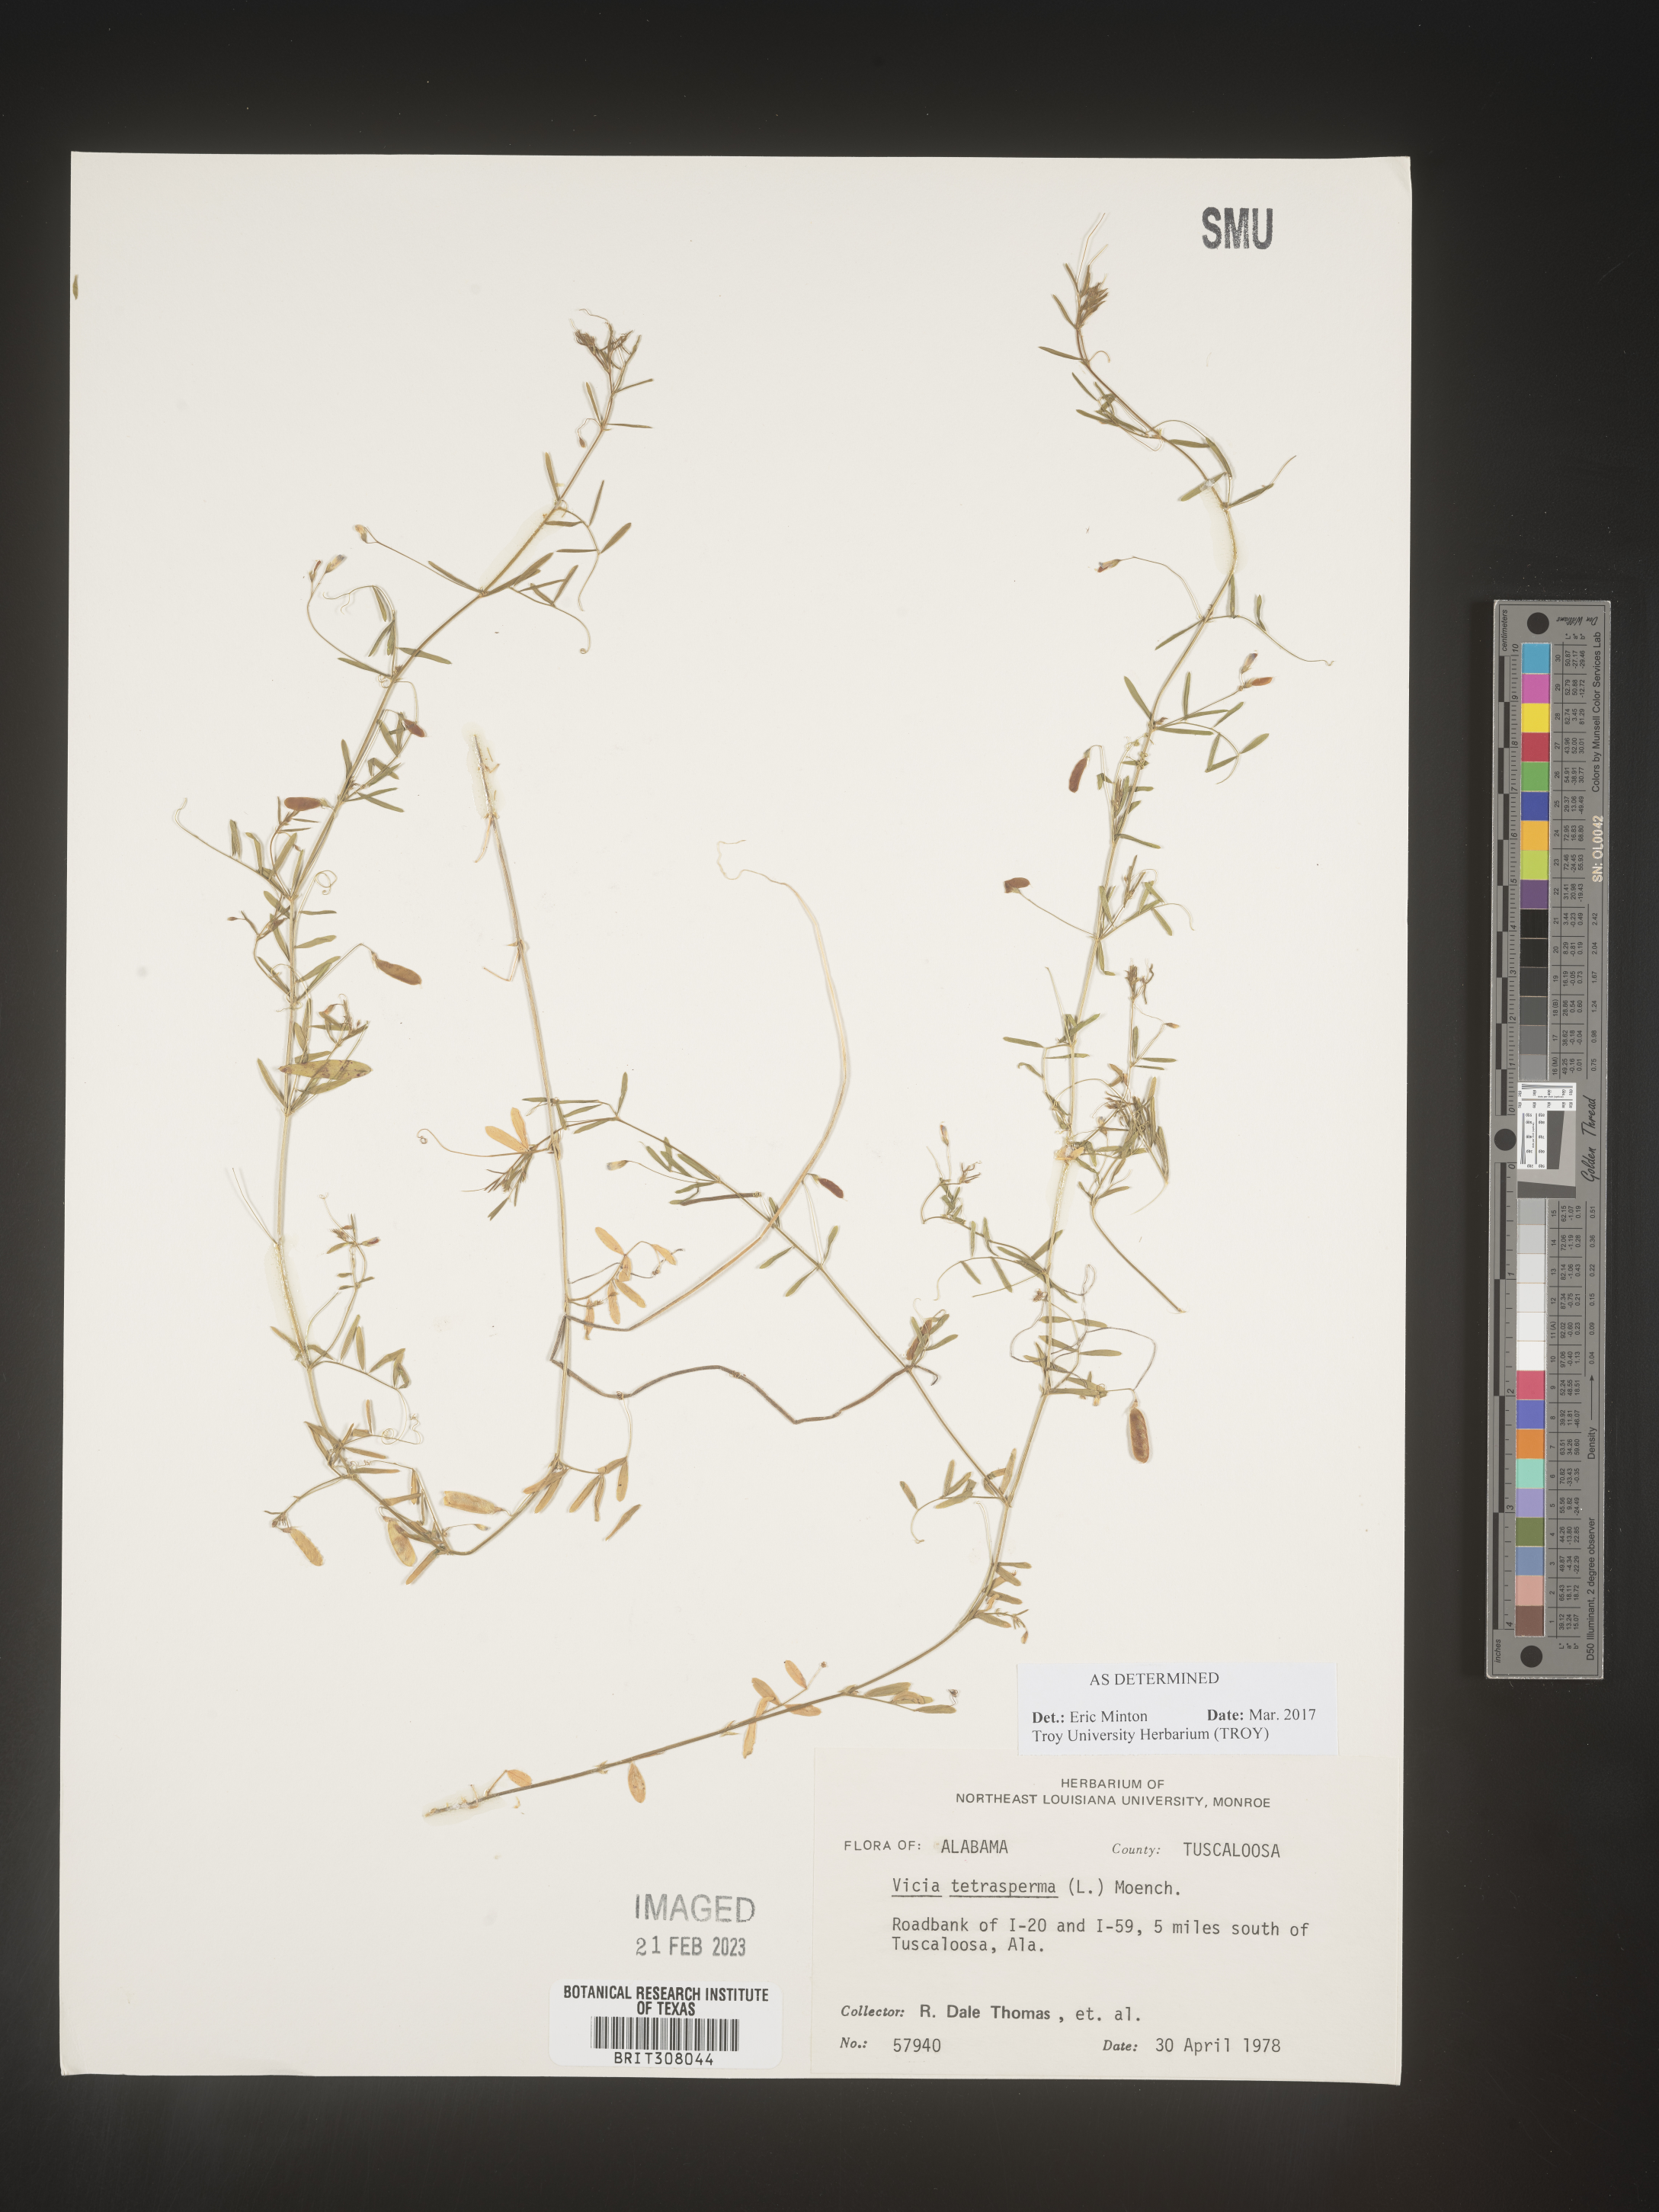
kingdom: Plantae
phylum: Tracheophyta
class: Magnoliopsida
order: Fabales
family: Fabaceae
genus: Vicia
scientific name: Vicia tetrasperma
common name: Smooth tare
